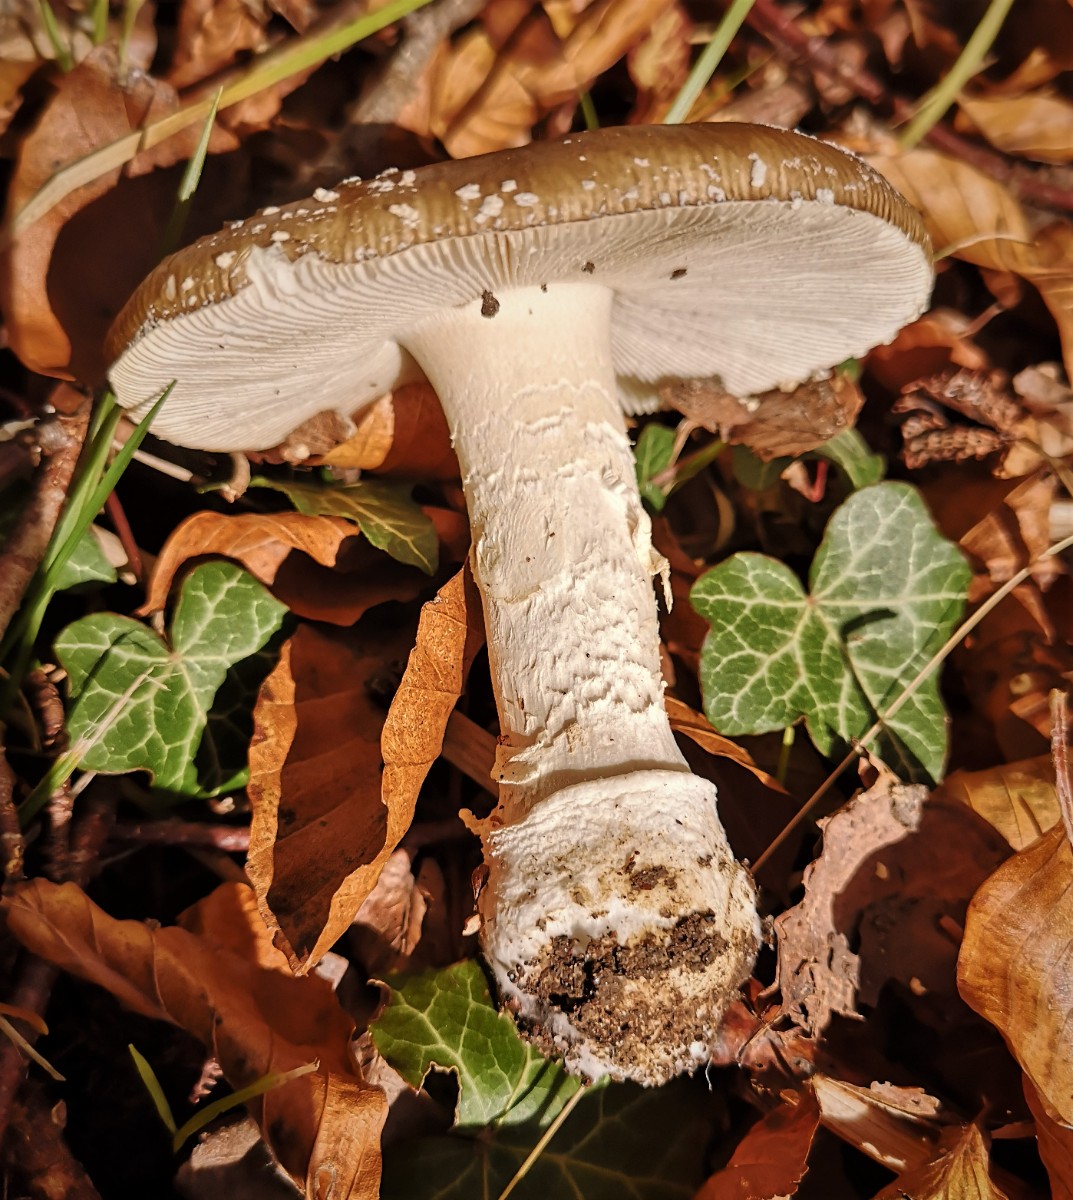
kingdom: Fungi
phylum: Basidiomycota
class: Agaricomycetes
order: Agaricales
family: Amanitaceae
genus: Amanita
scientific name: Amanita pantherina
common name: panter-fluesvamp
